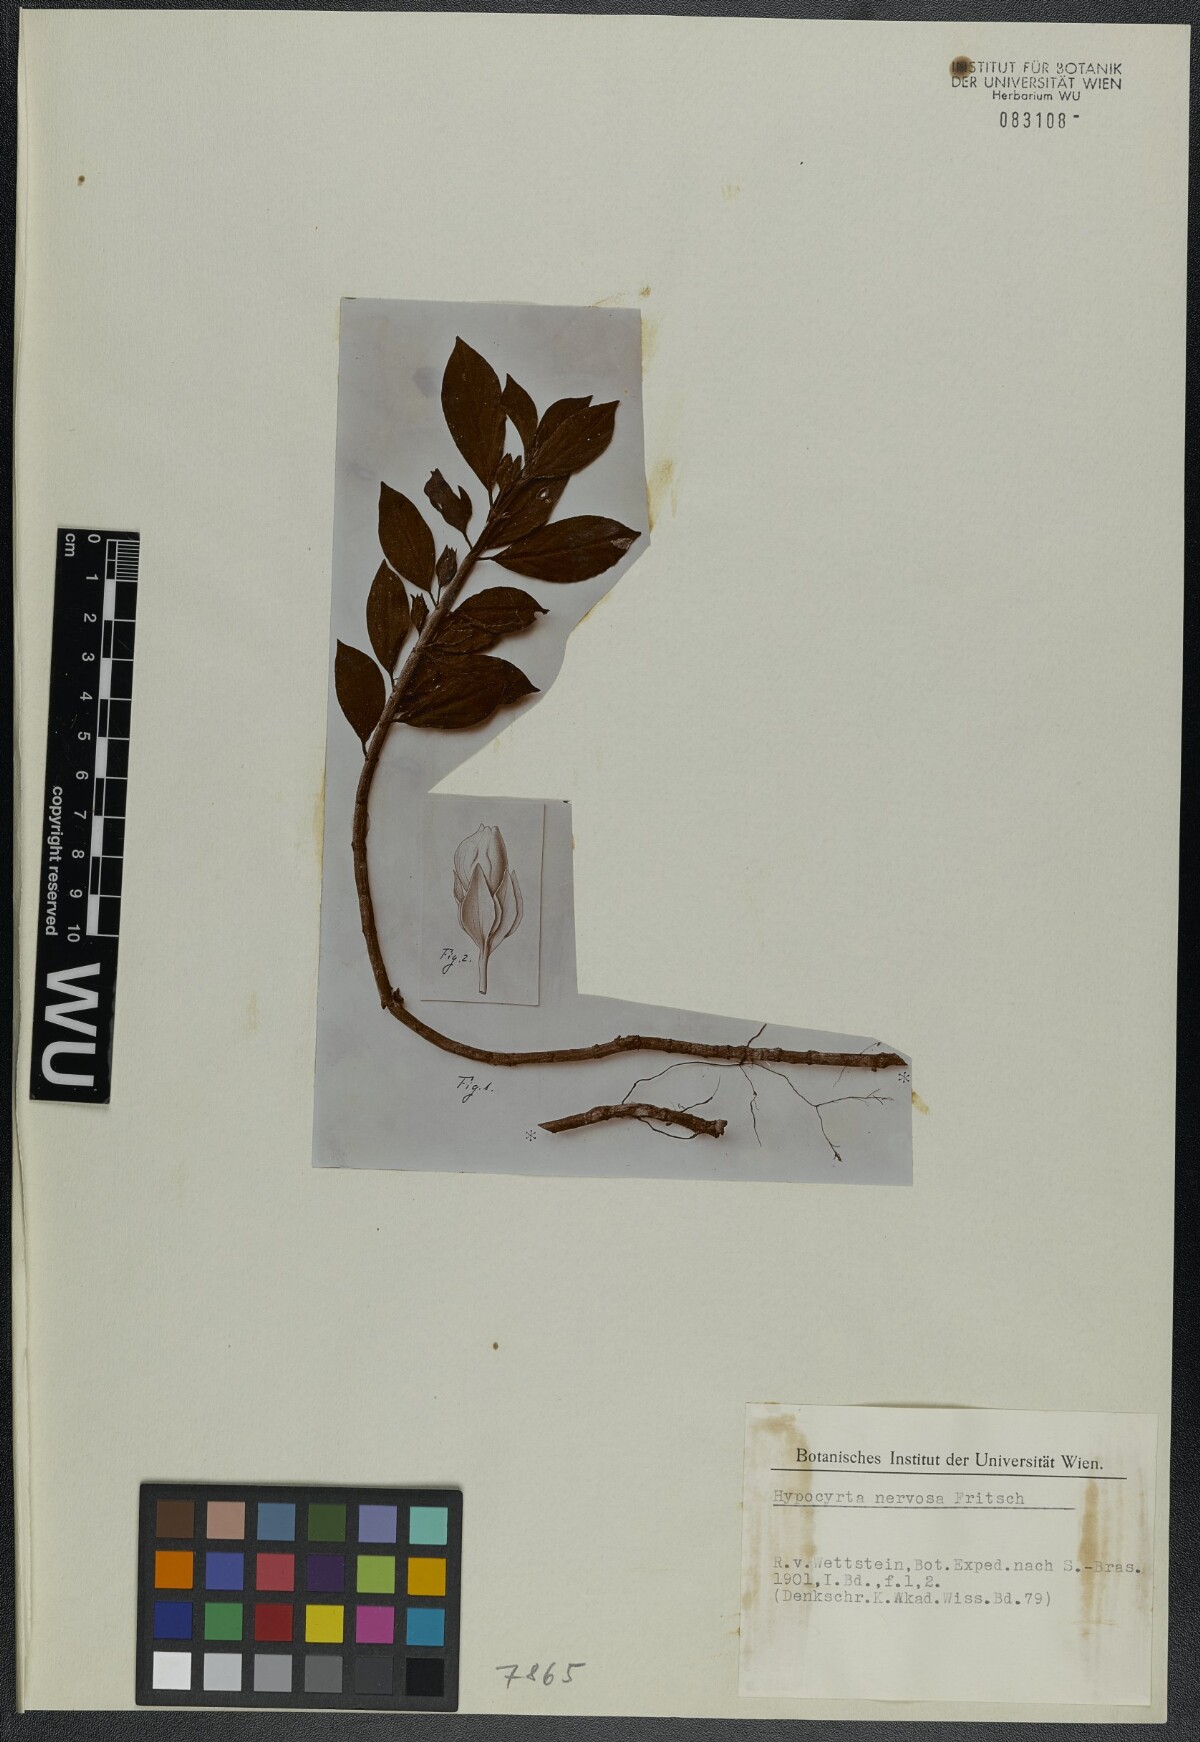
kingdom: Plantae
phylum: Tracheophyta
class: Magnoliopsida
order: Lamiales
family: Gesneriaceae
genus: Nematanthus
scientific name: Nematanthus fornix
